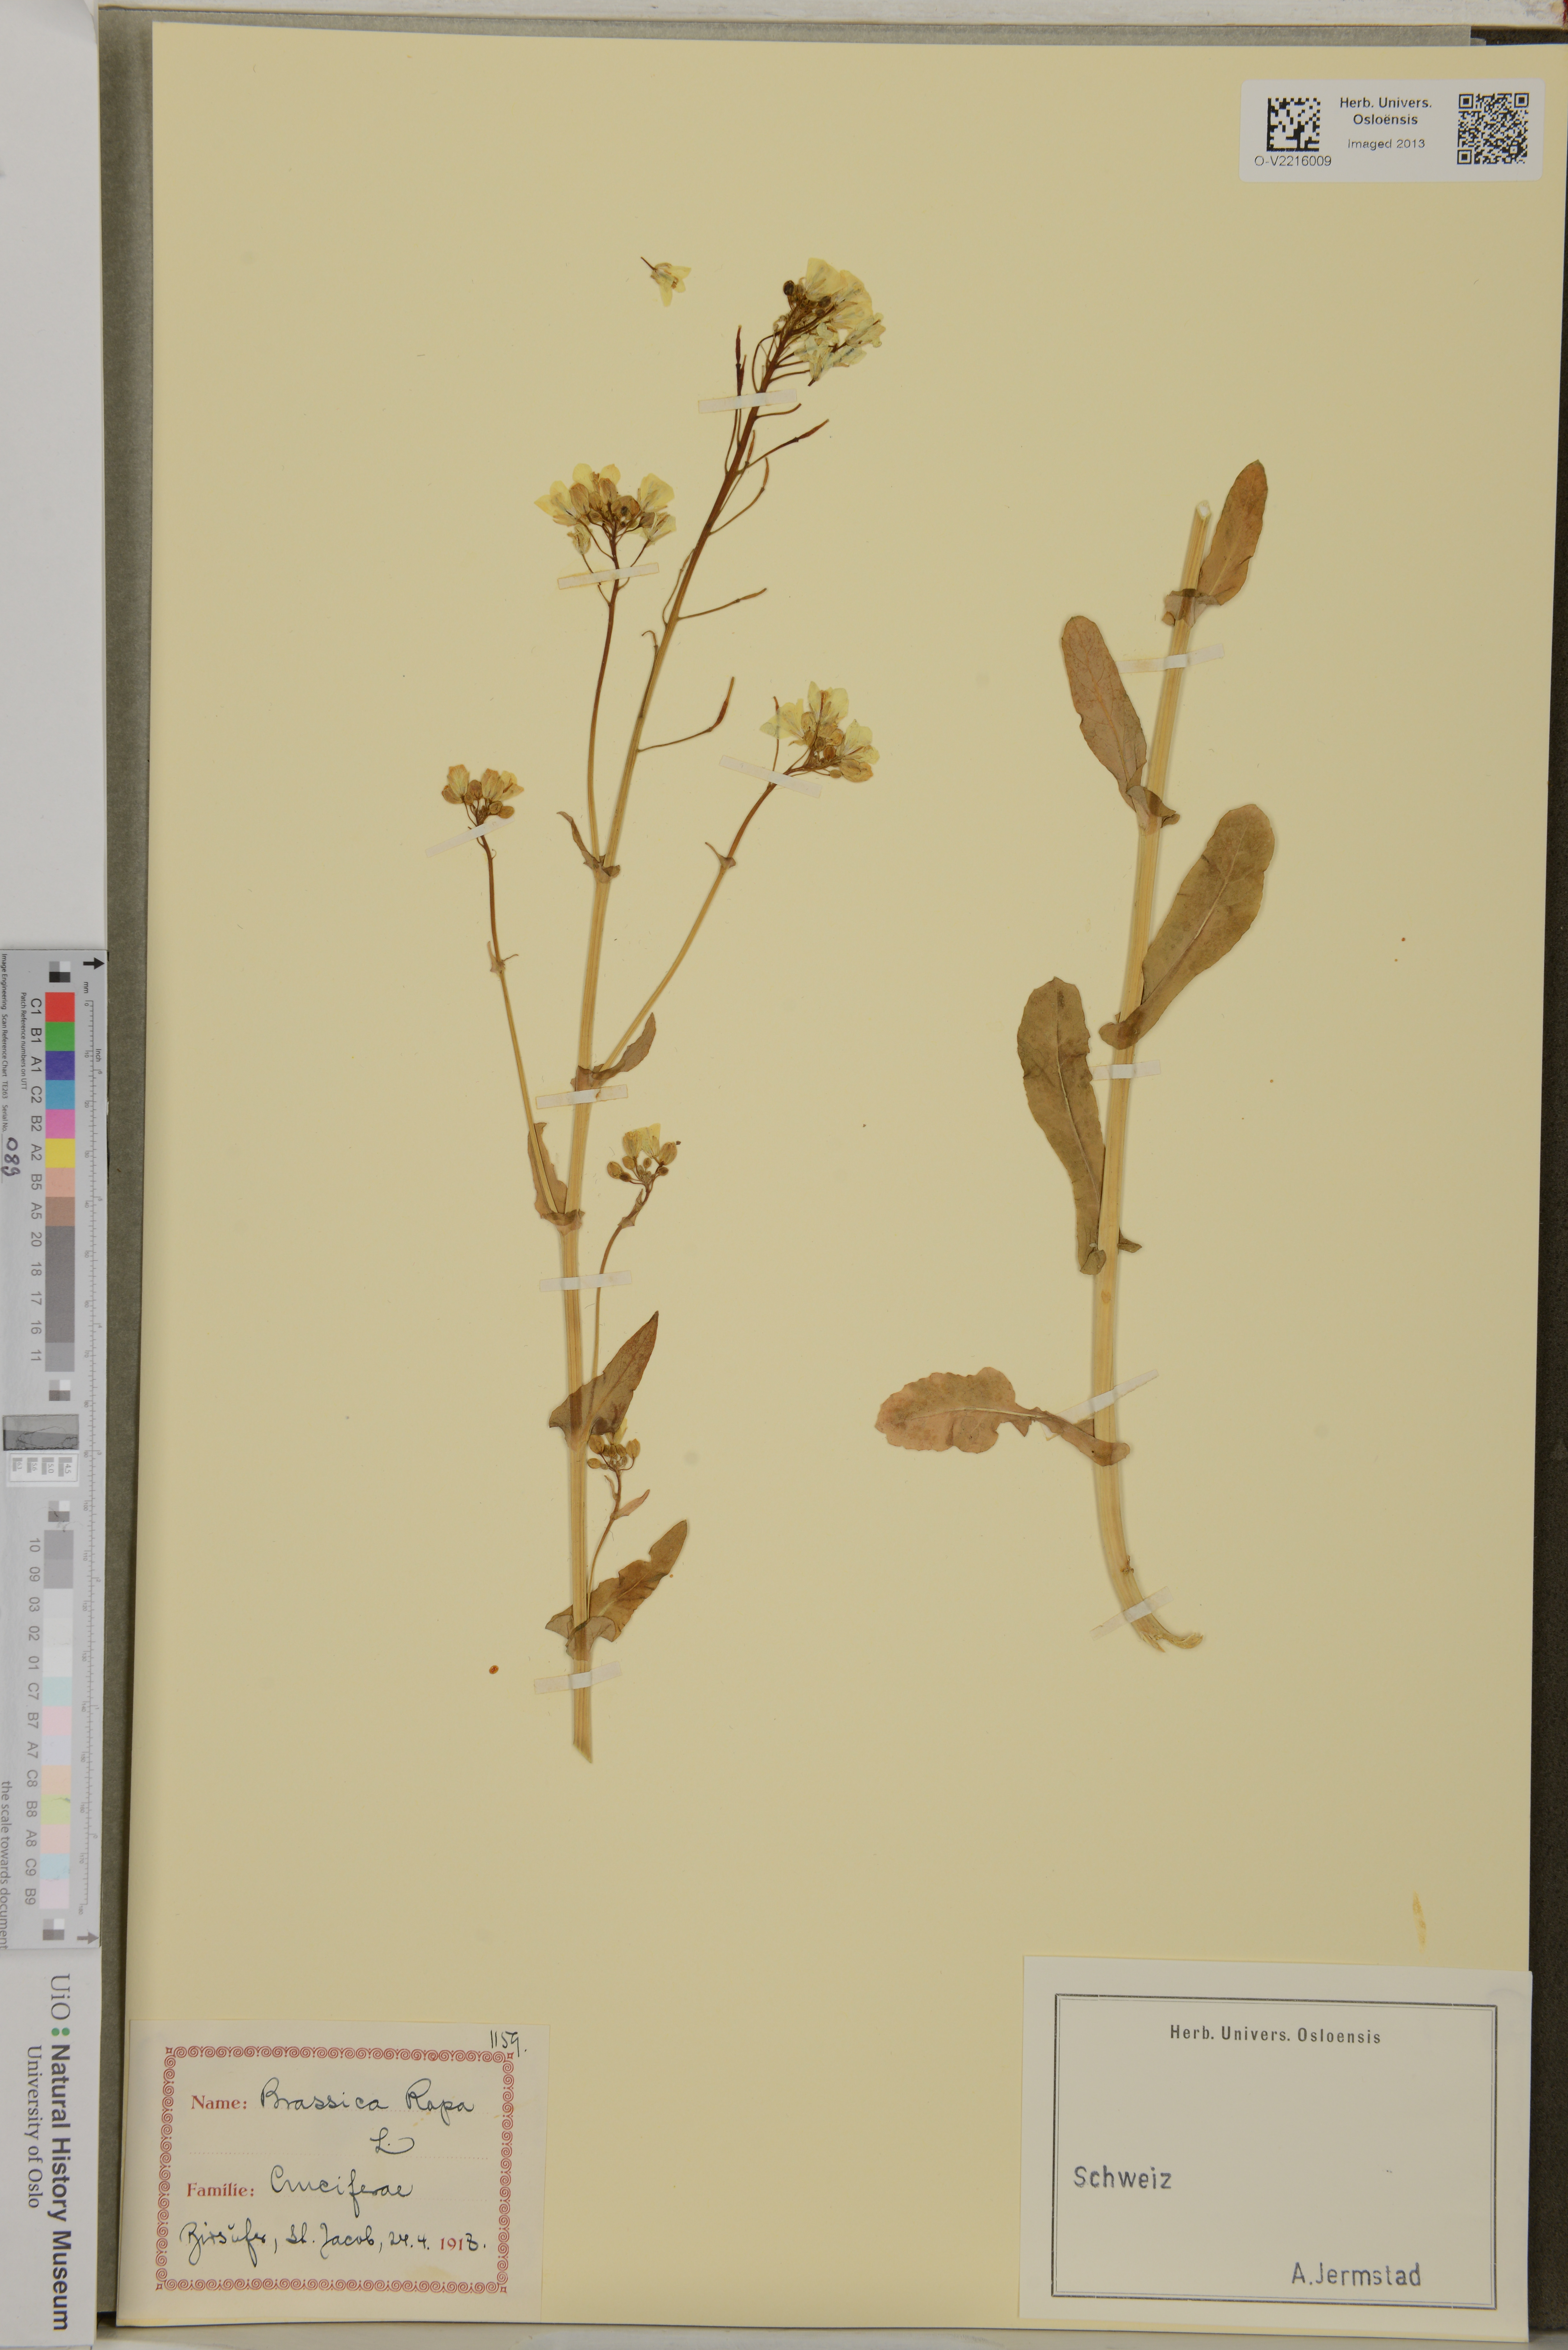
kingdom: Plantae
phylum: Tracheophyta
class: Magnoliopsida
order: Brassicales
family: Brassicaceae
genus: Brassica
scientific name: Brassica rapa
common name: Field mustard
